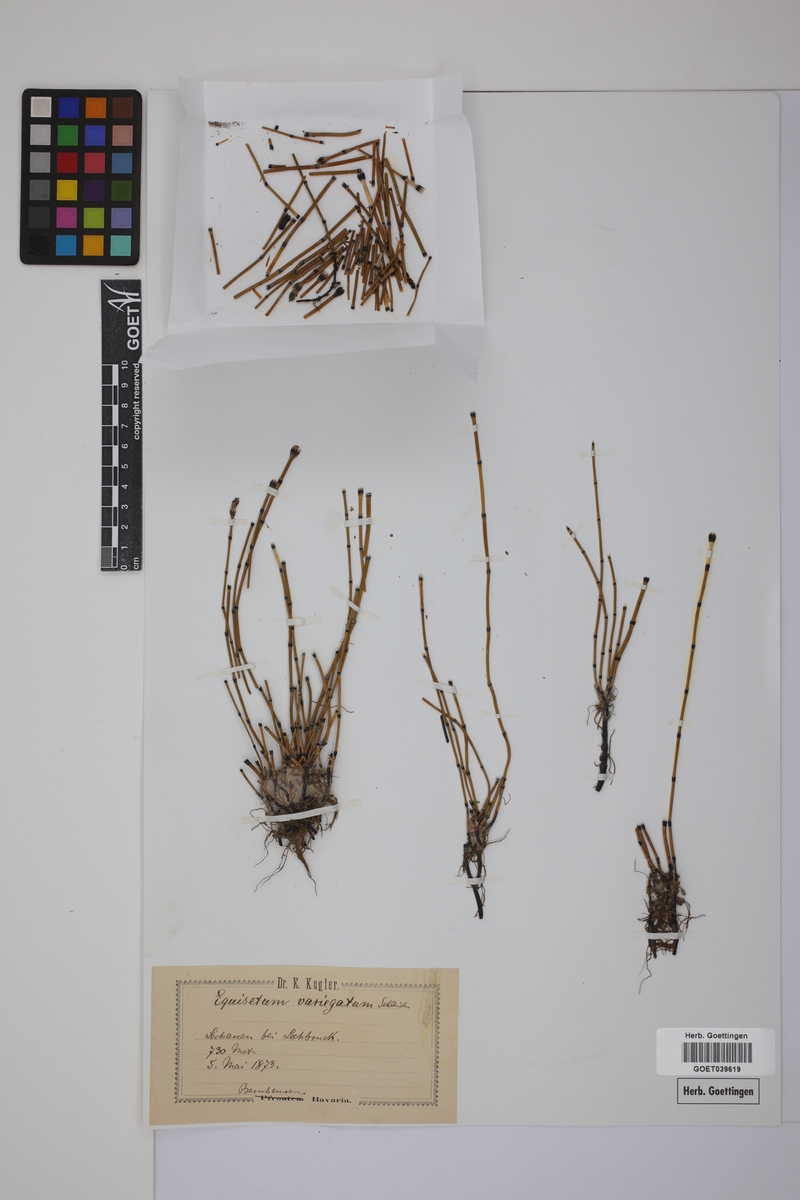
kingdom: Plantae
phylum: Tracheophyta
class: Polypodiopsida
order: Equisetales
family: Equisetaceae
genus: Equisetum
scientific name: Equisetum variegatum
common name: Variegated horsetail
